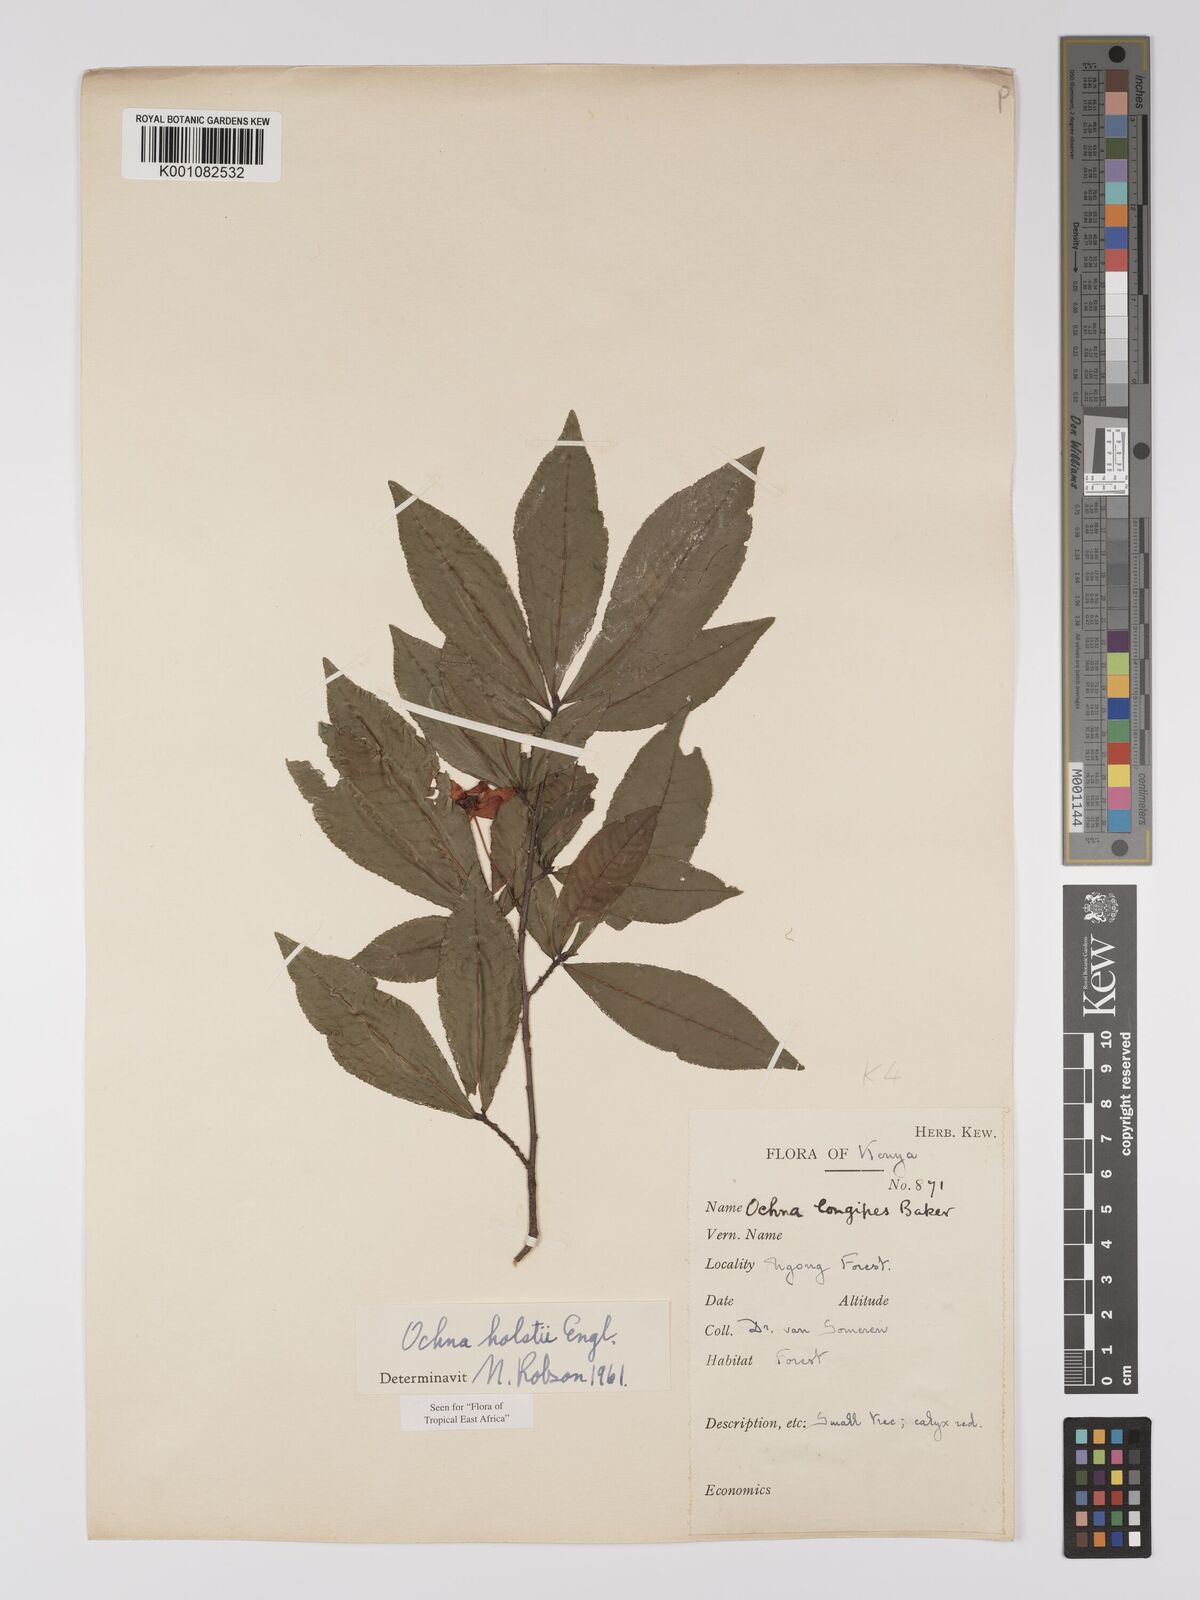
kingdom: Plantae
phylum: Tracheophyta
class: Magnoliopsida
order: Malpighiales
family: Ochnaceae
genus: Ochna
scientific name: Ochna holstii
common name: Red ironwood
